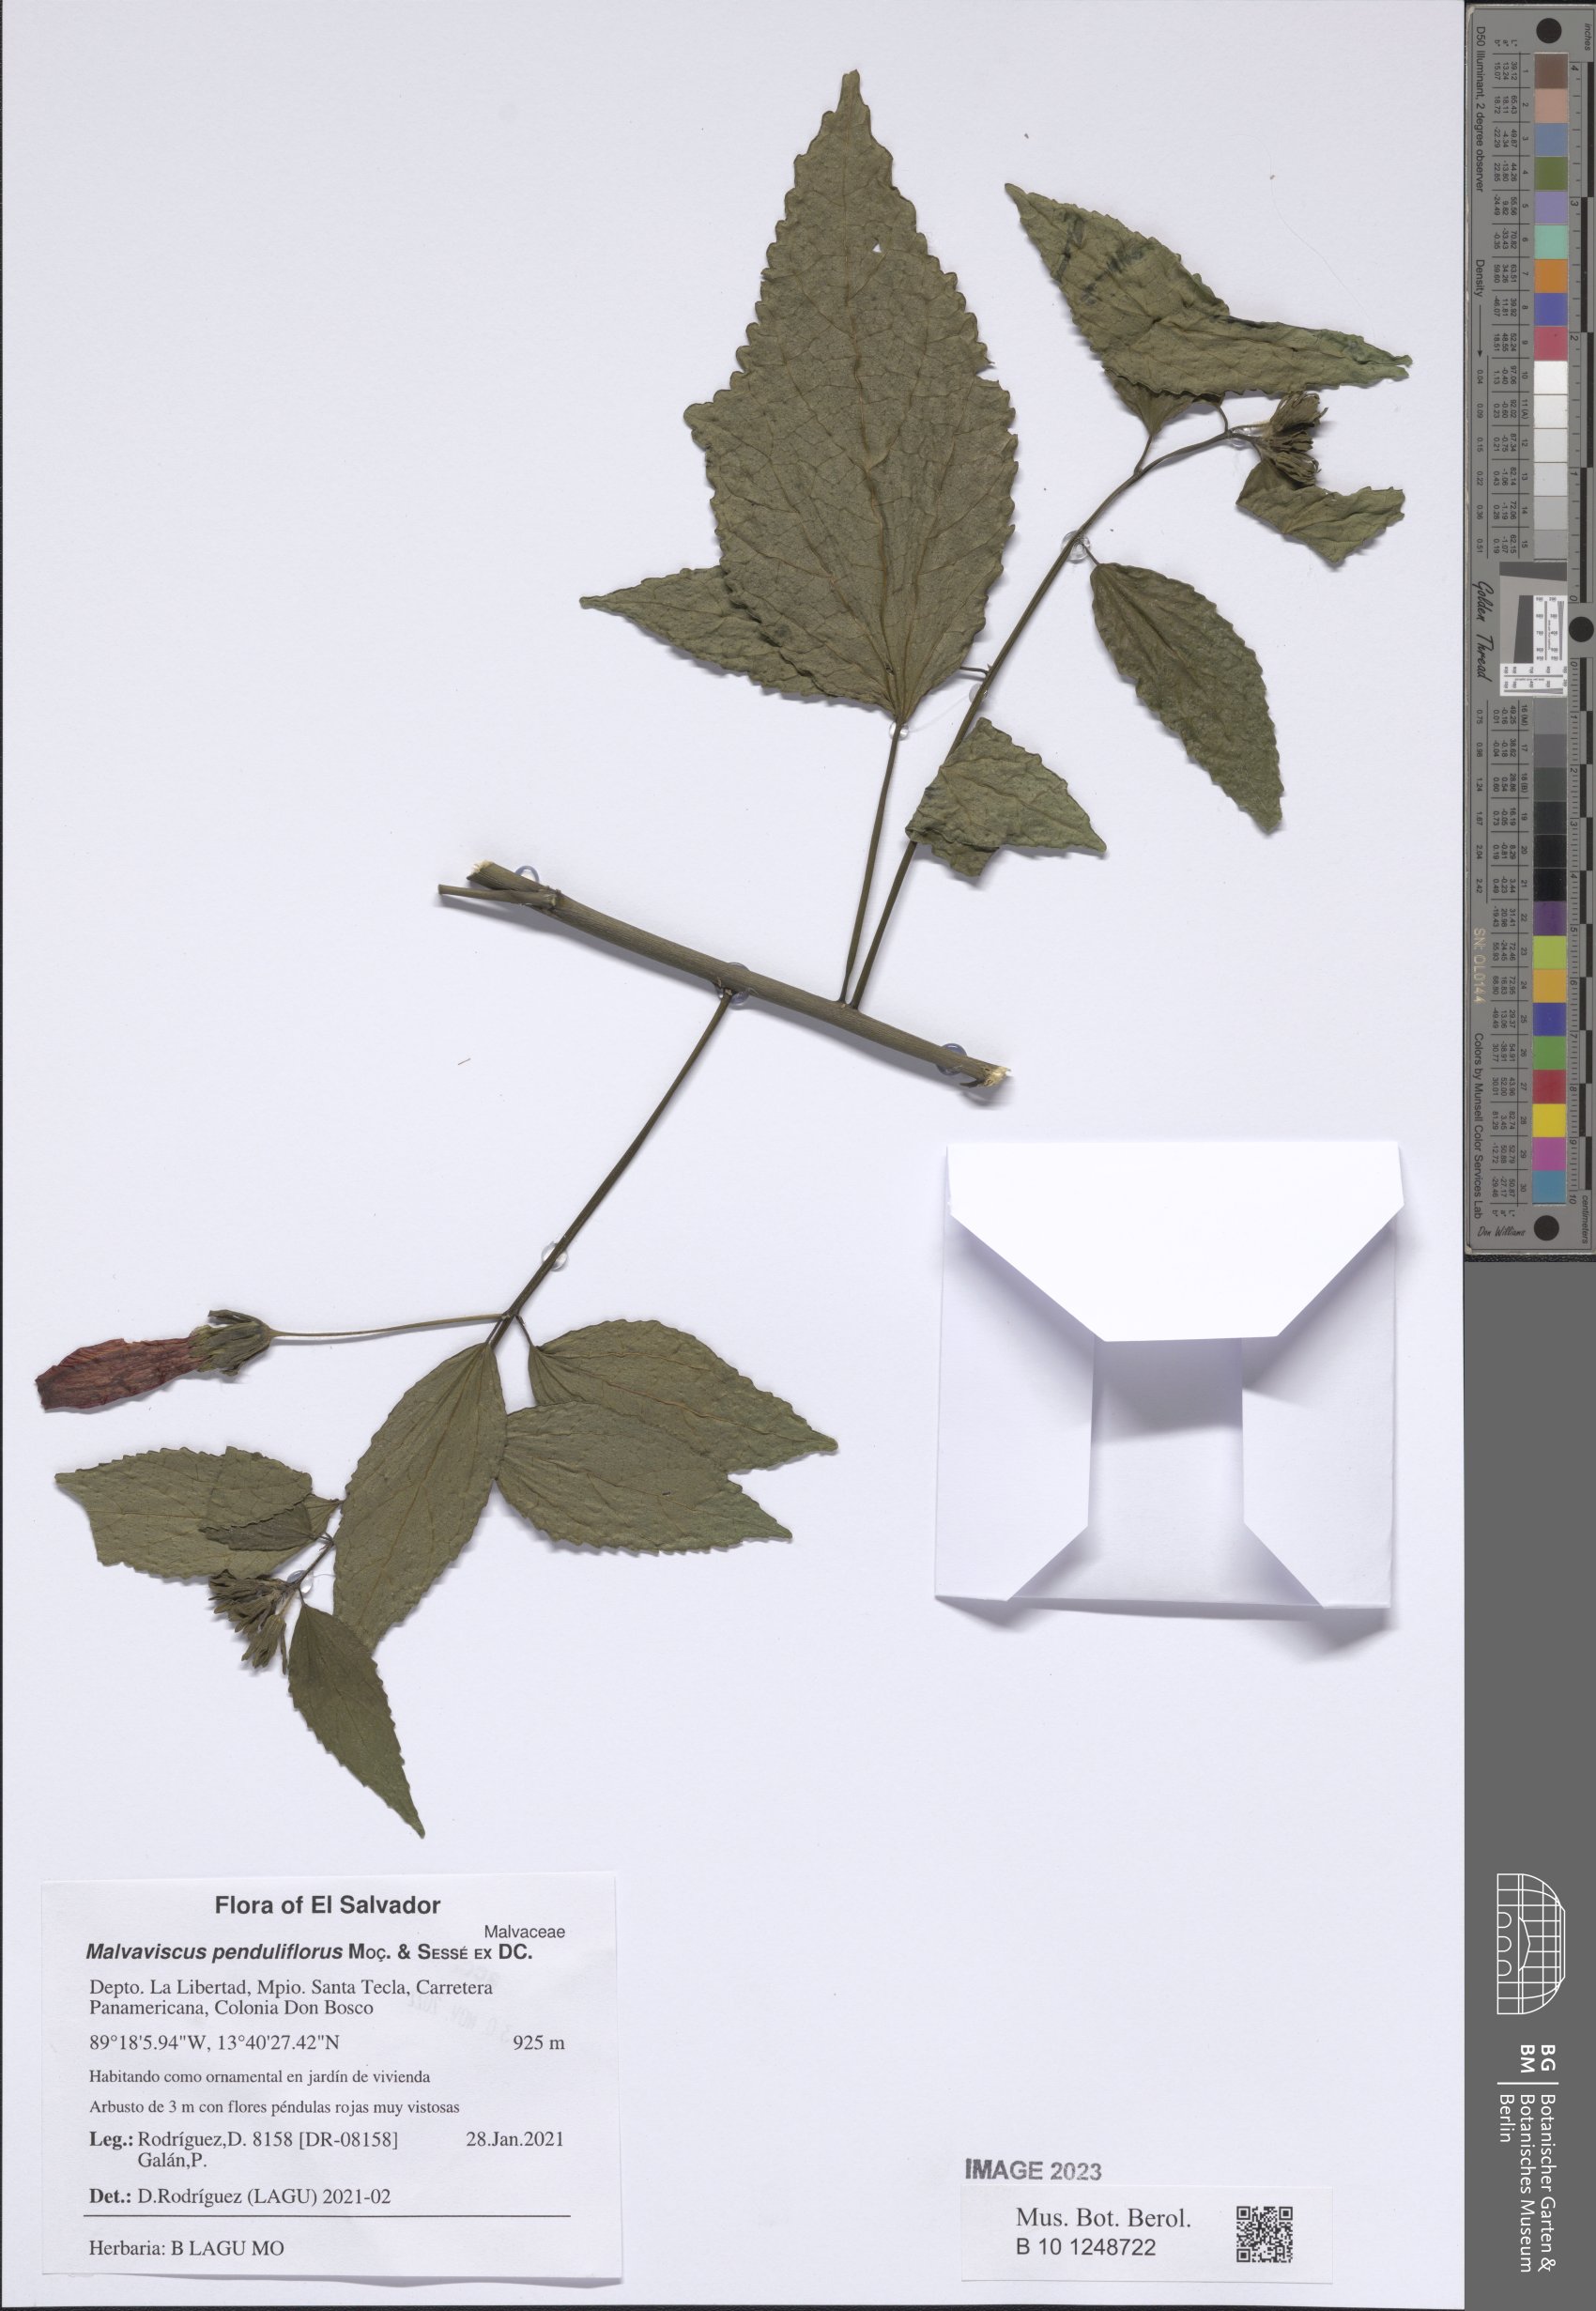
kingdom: Plantae
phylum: Tracheophyta
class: Magnoliopsida
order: Malvales
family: Malvaceae
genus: Malvaviscus
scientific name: Malvaviscus penduliflorus
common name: Mazapan
